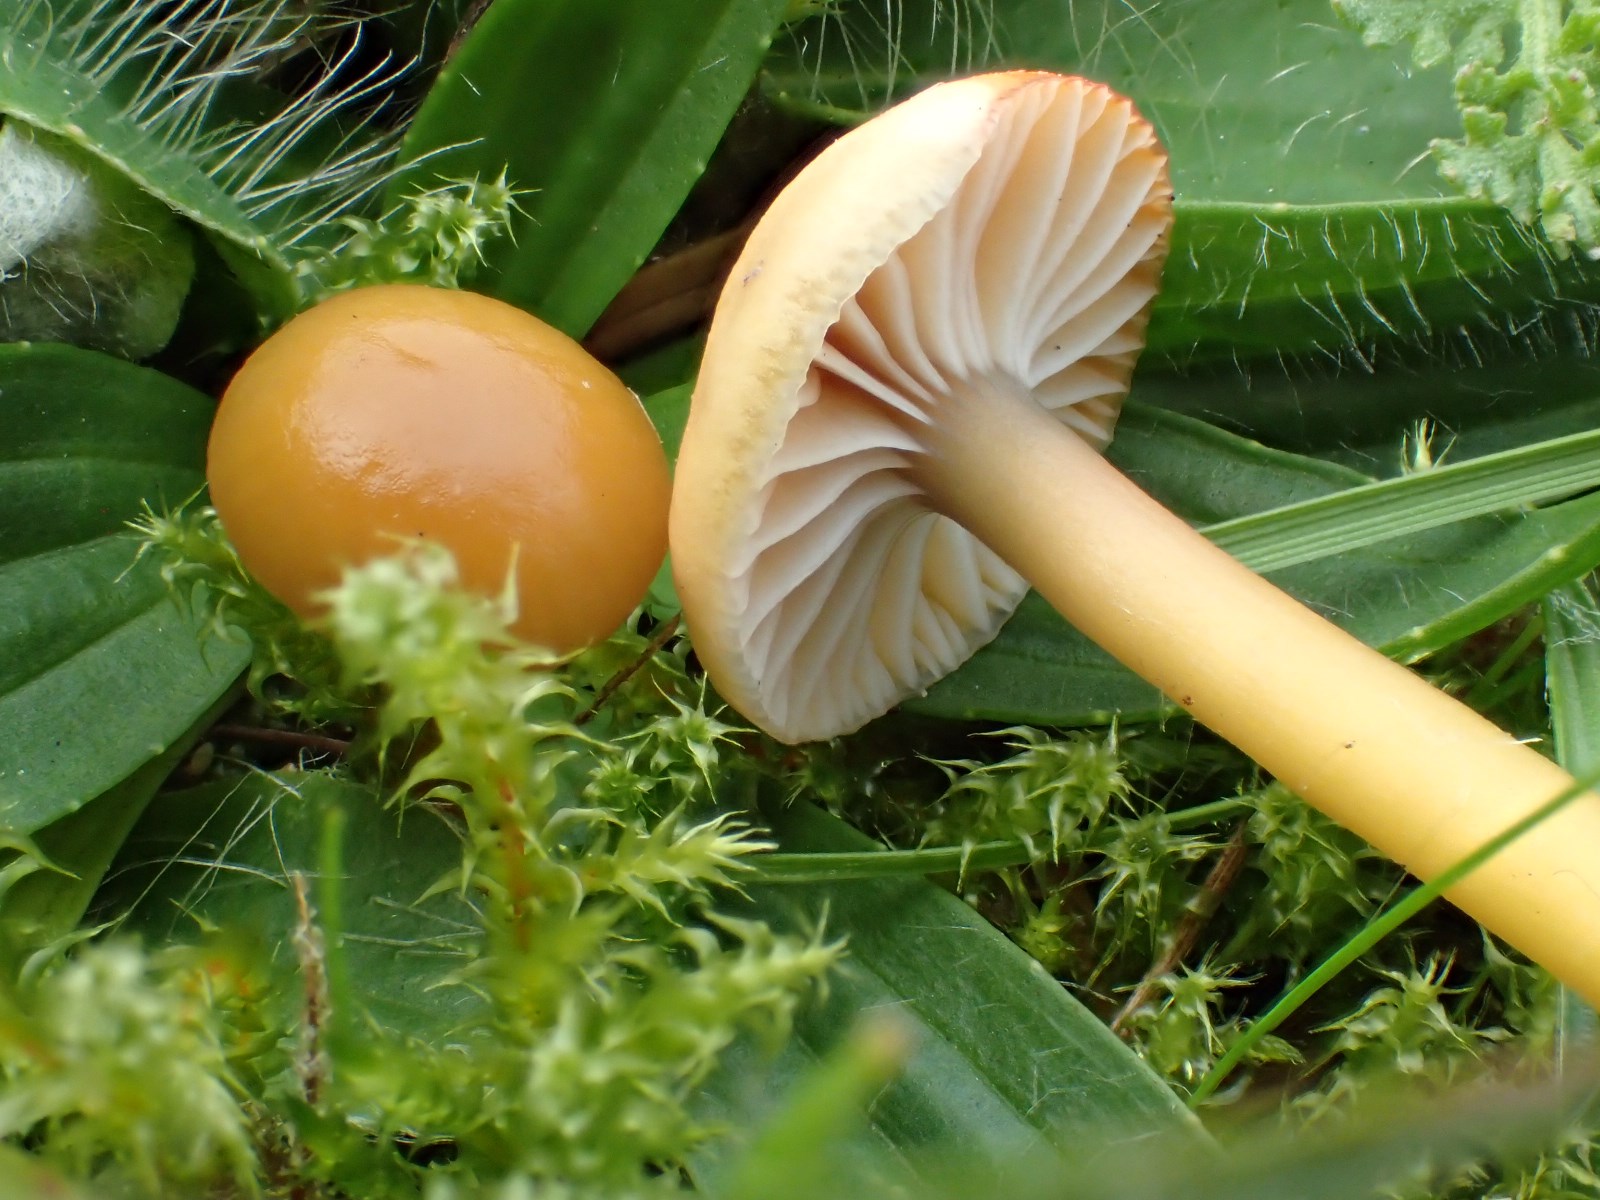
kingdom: Fungi
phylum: Basidiomycota
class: Agaricomycetes
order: Agaricales
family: Hygrophoraceae
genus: Gliophorus
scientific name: Gliophorus laetus
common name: brusk-vokshat
